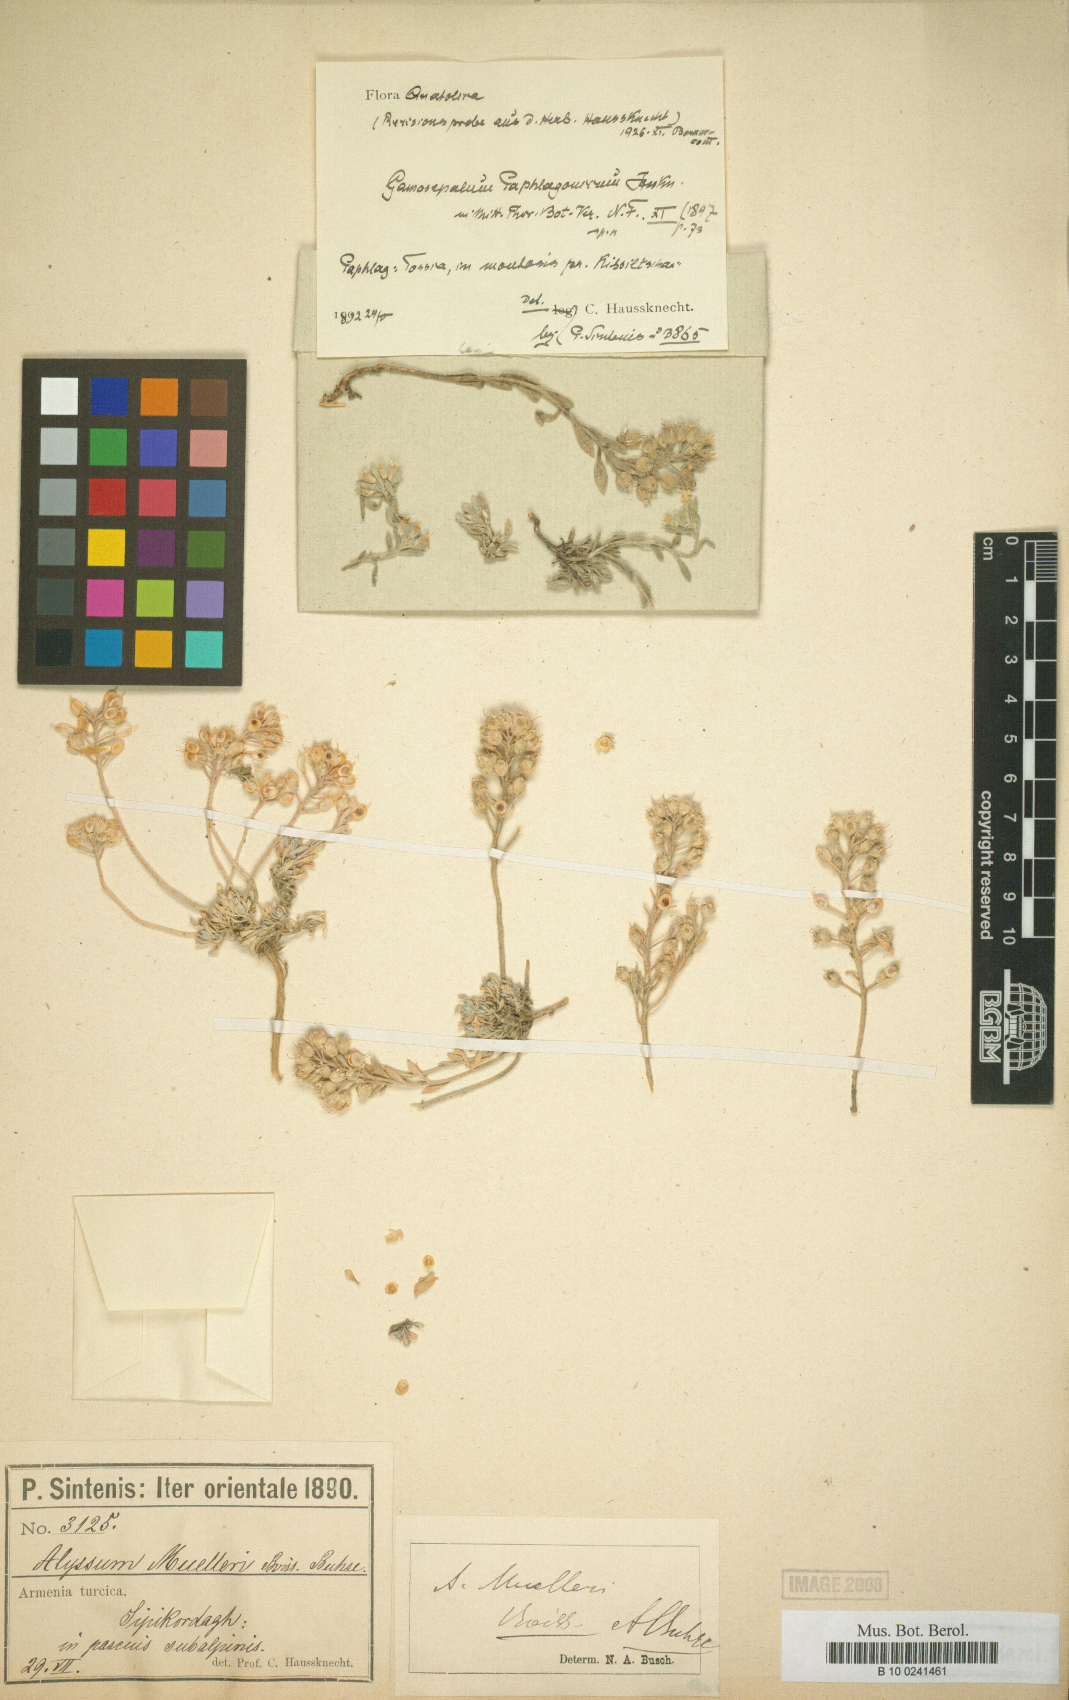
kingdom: Plantae
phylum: Tracheophyta
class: Magnoliopsida
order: Brassicales
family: Brassicaceae
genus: Alyssum
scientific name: Alyssum paphlagonicum
